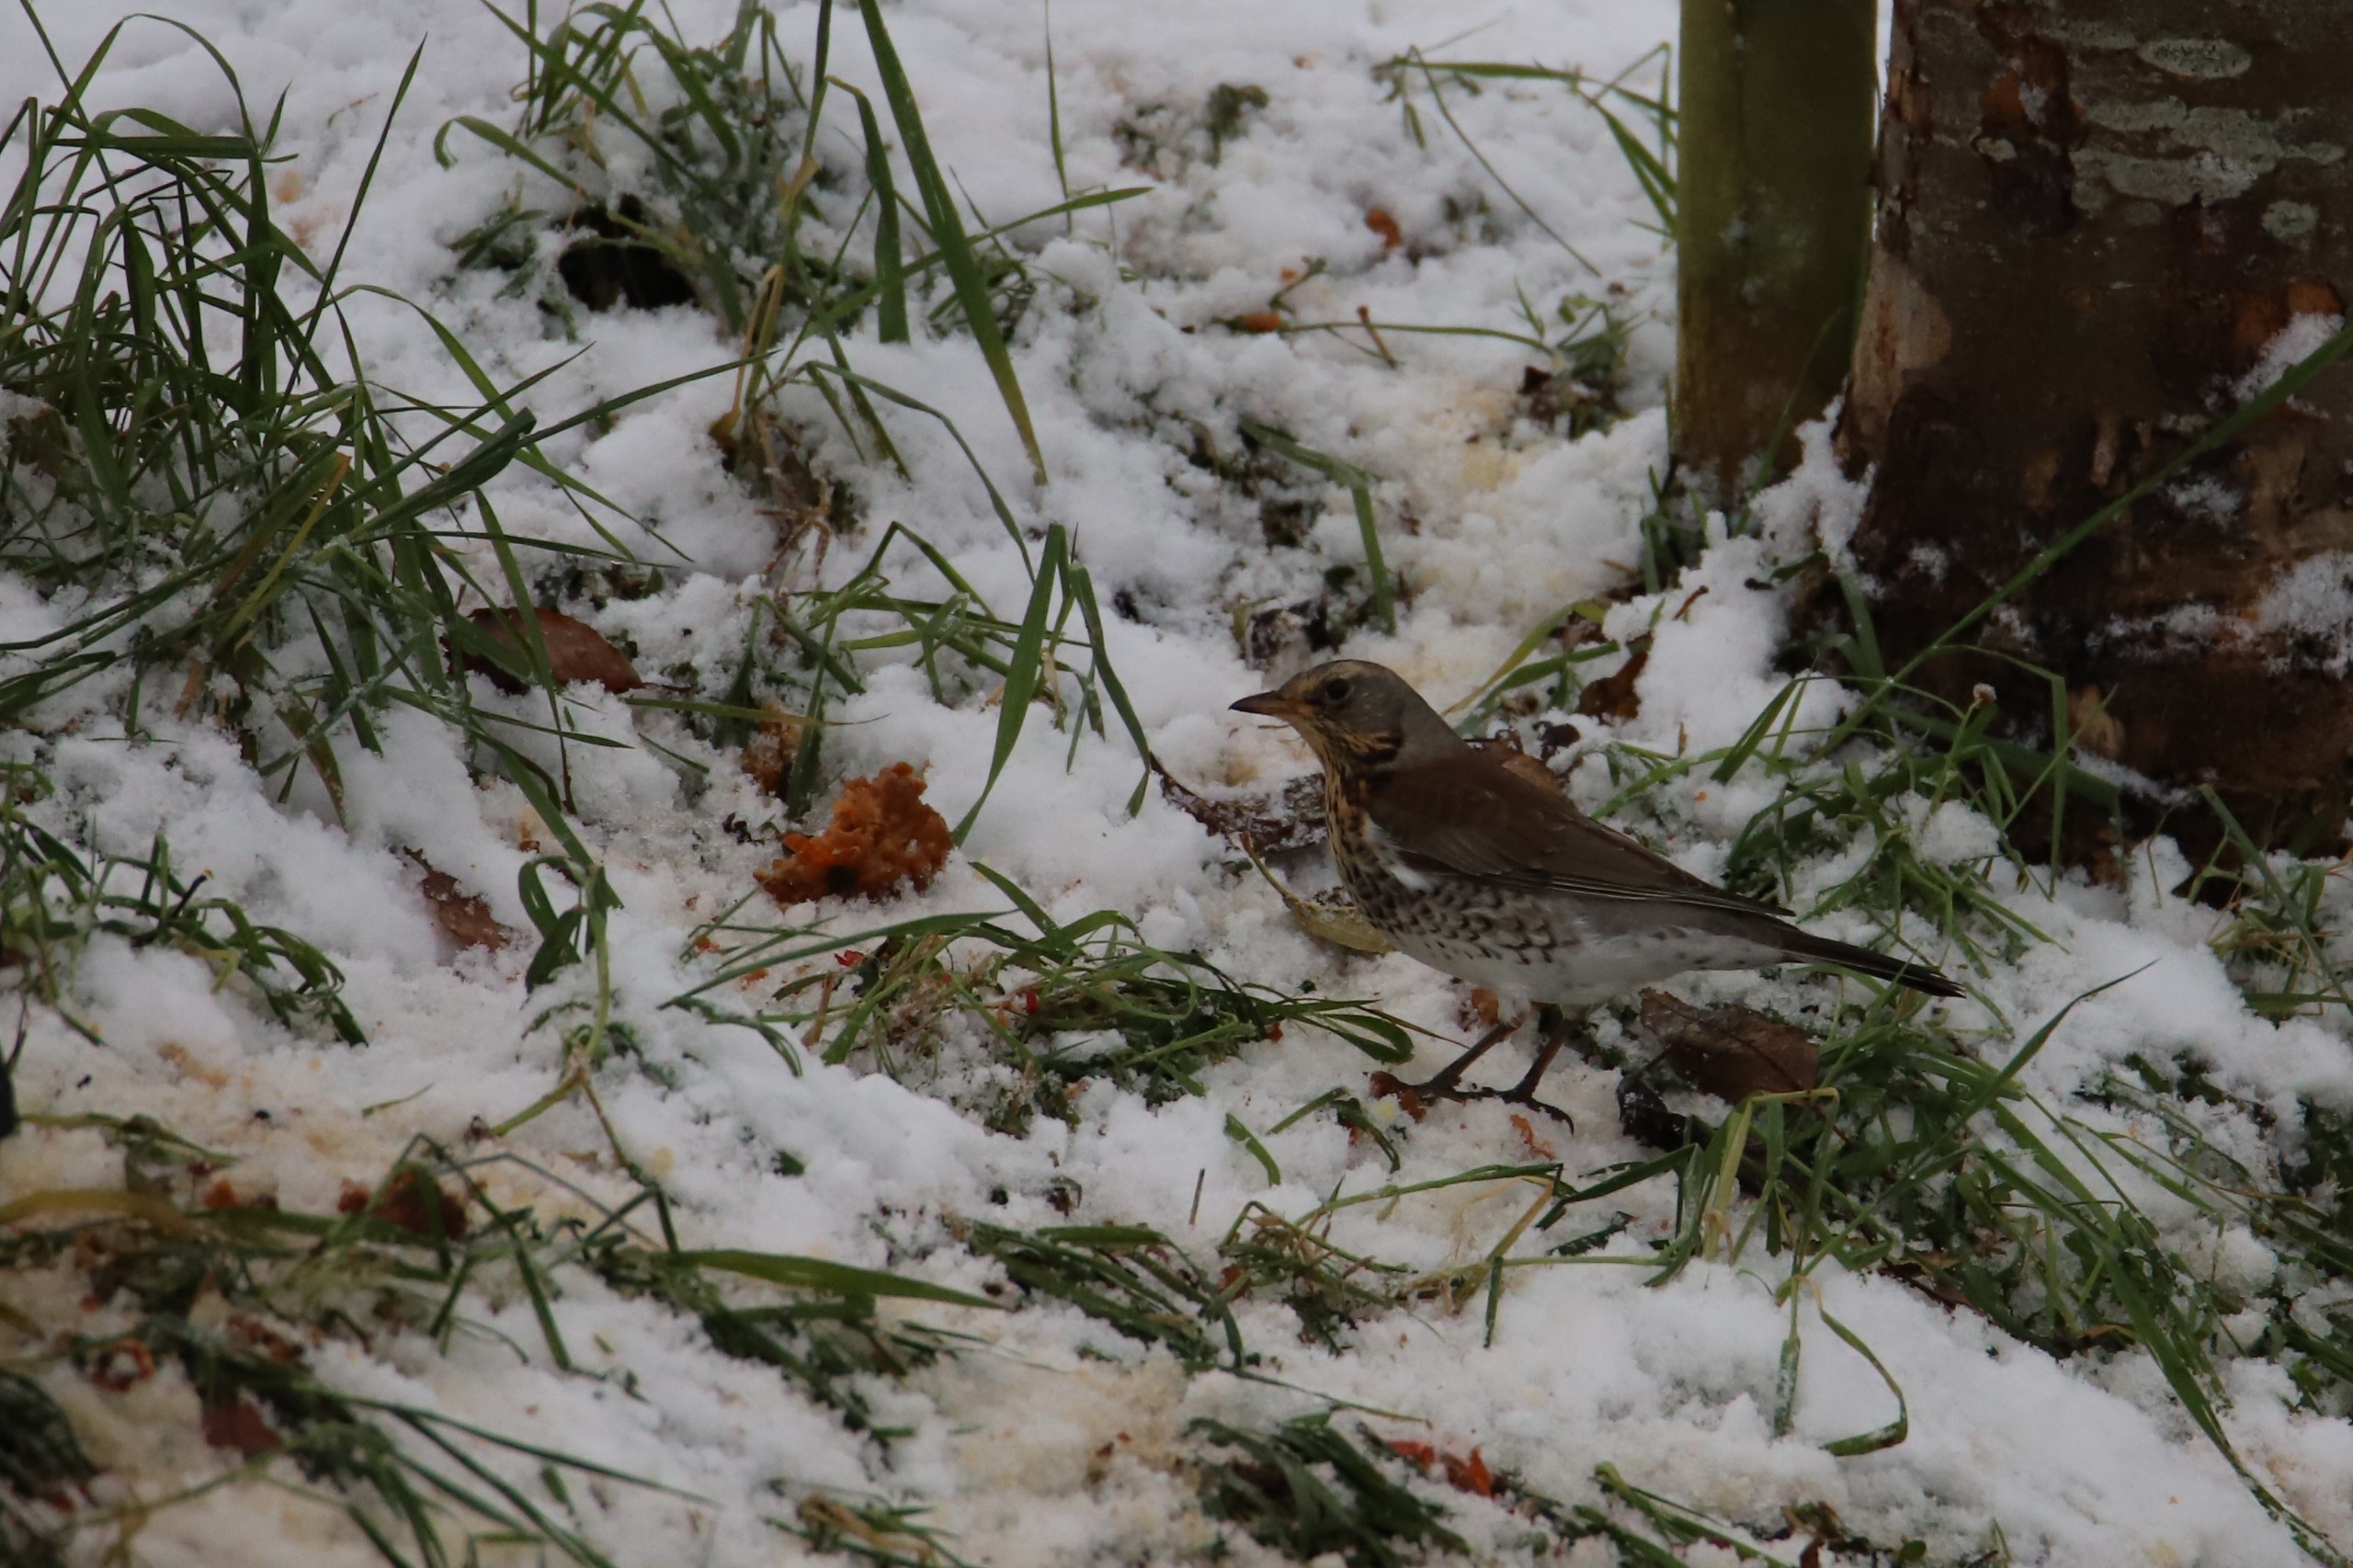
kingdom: Animalia
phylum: Chordata
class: Aves
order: Passeriformes
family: Turdidae
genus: Turdus
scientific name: Turdus pilaris
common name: Sjagger
